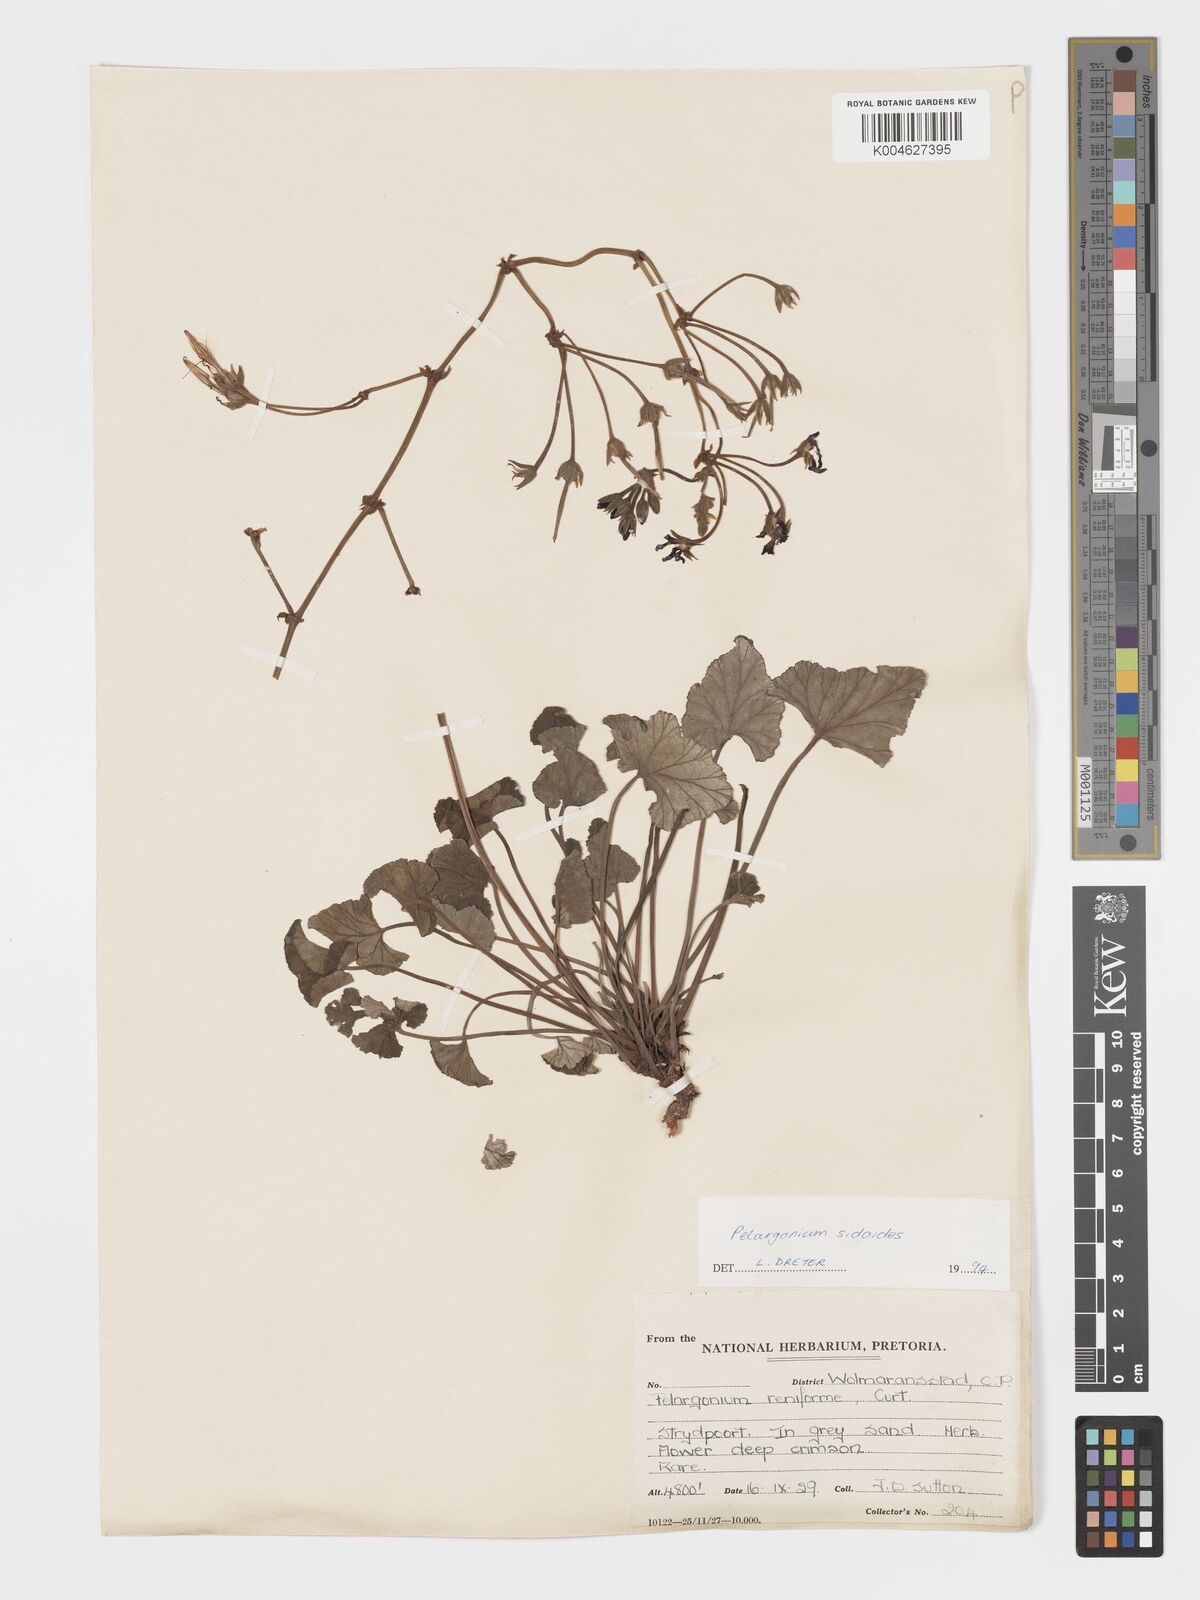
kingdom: Plantae
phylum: Tracheophyta
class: Magnoliopsida
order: Geraniales
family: Geraniaceae
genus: Pelargonium
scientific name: Pelargonium sidoides
